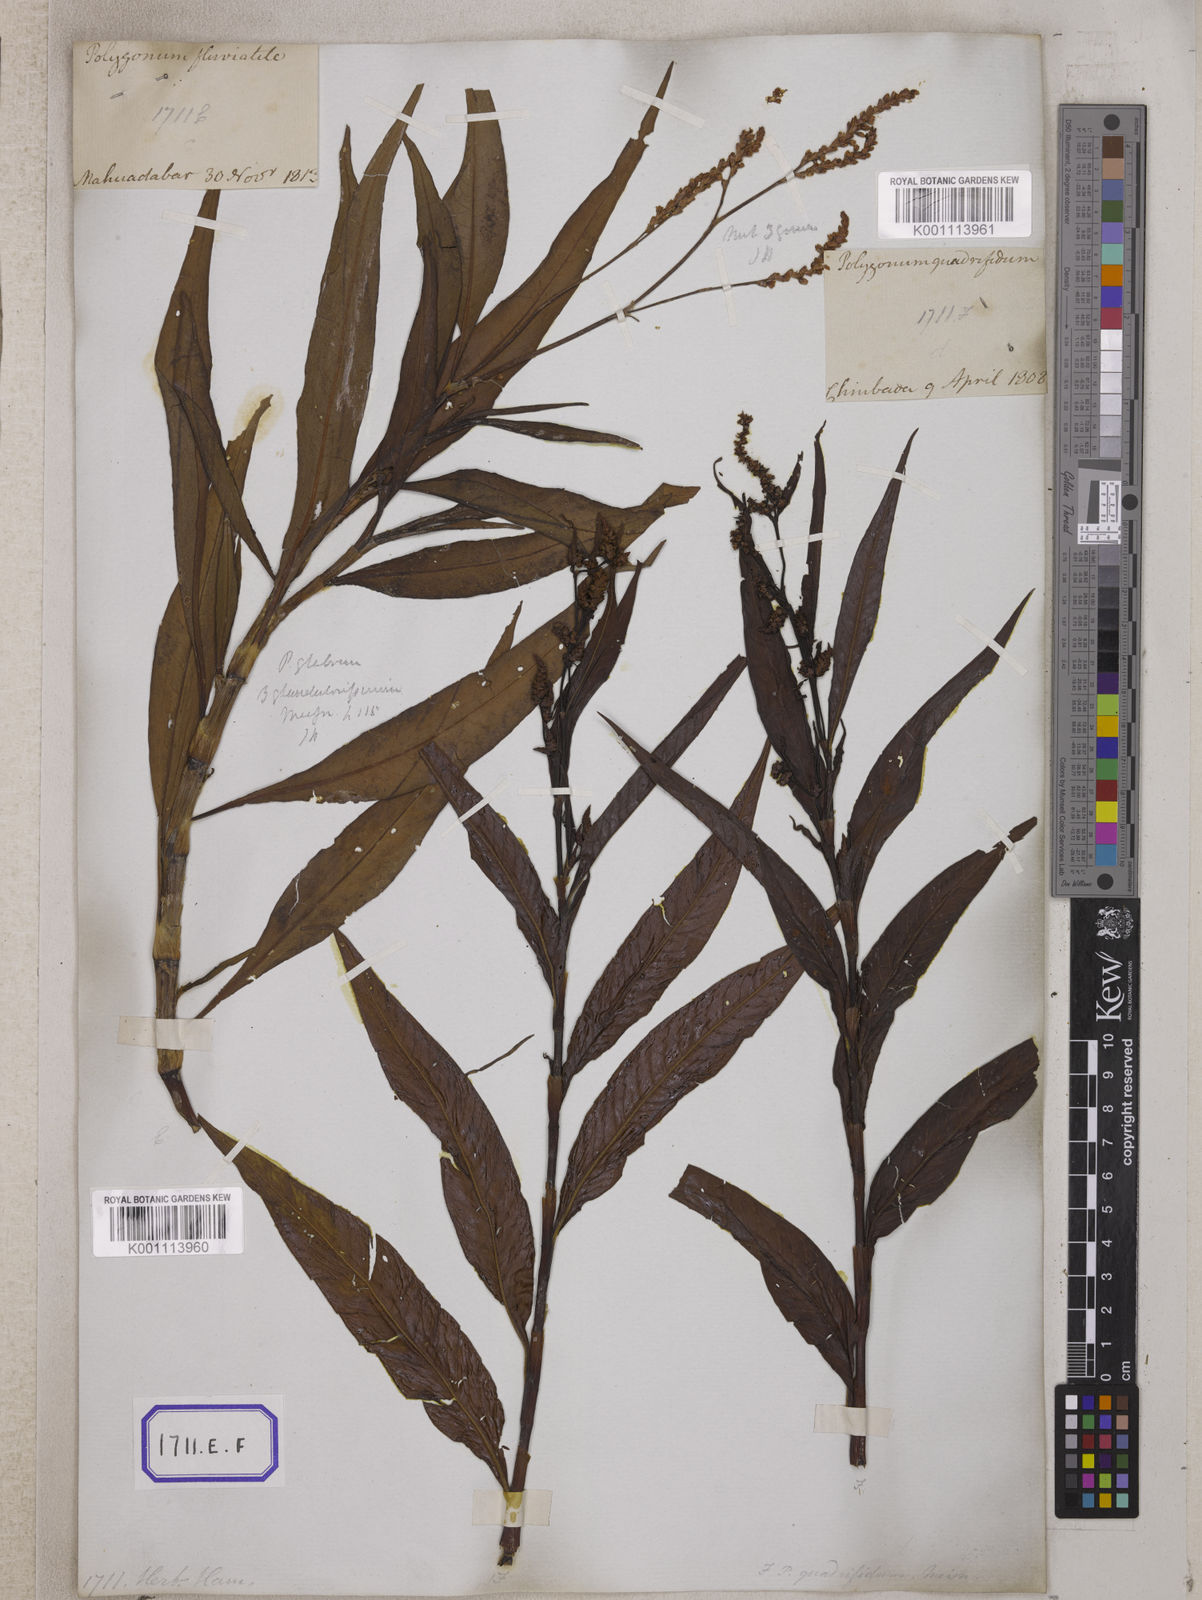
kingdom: Plantae
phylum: Tracheophyta
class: Magnoliopsida
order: Caryophyllales
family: Polygonaceae
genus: Persicaria
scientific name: Persicaria glabra
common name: Denseflower knotweed
